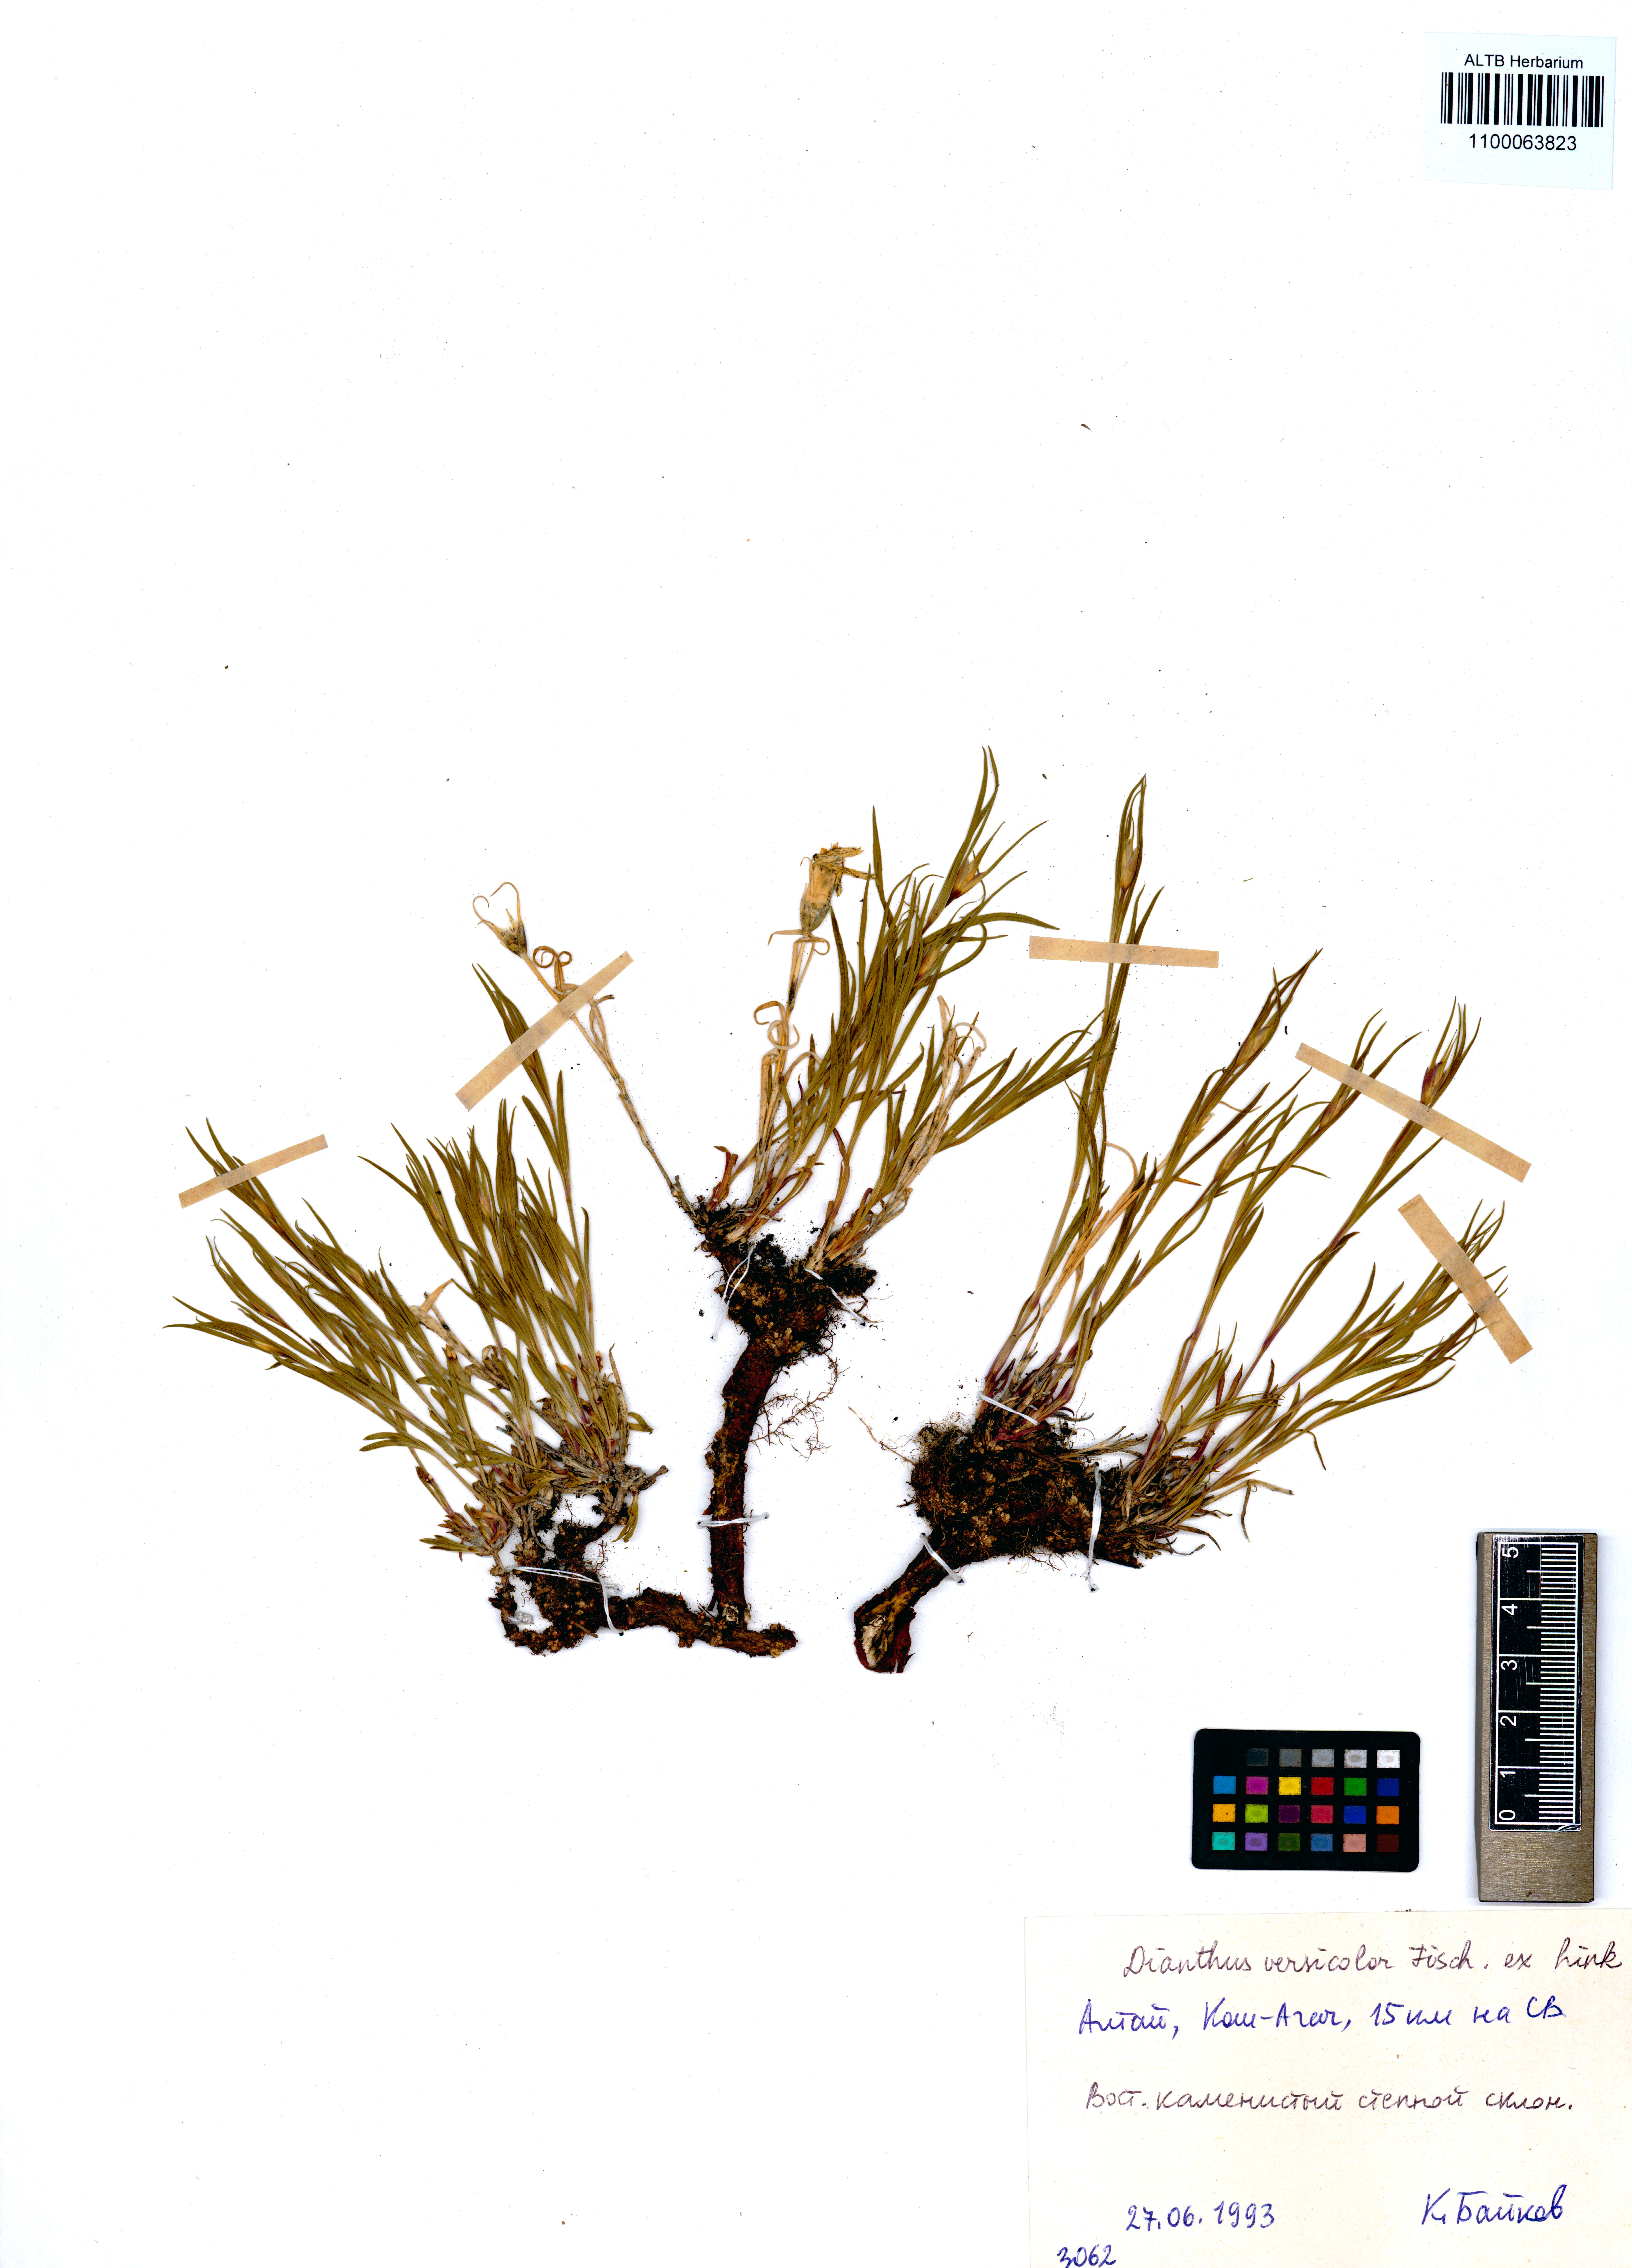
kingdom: Plantae
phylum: Tracheophyta
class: Magnoliopsida
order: Caryophyllales
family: Caryophyllaceae
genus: Dianthus
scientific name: Dianthus chinensis
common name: Rainbow pink
